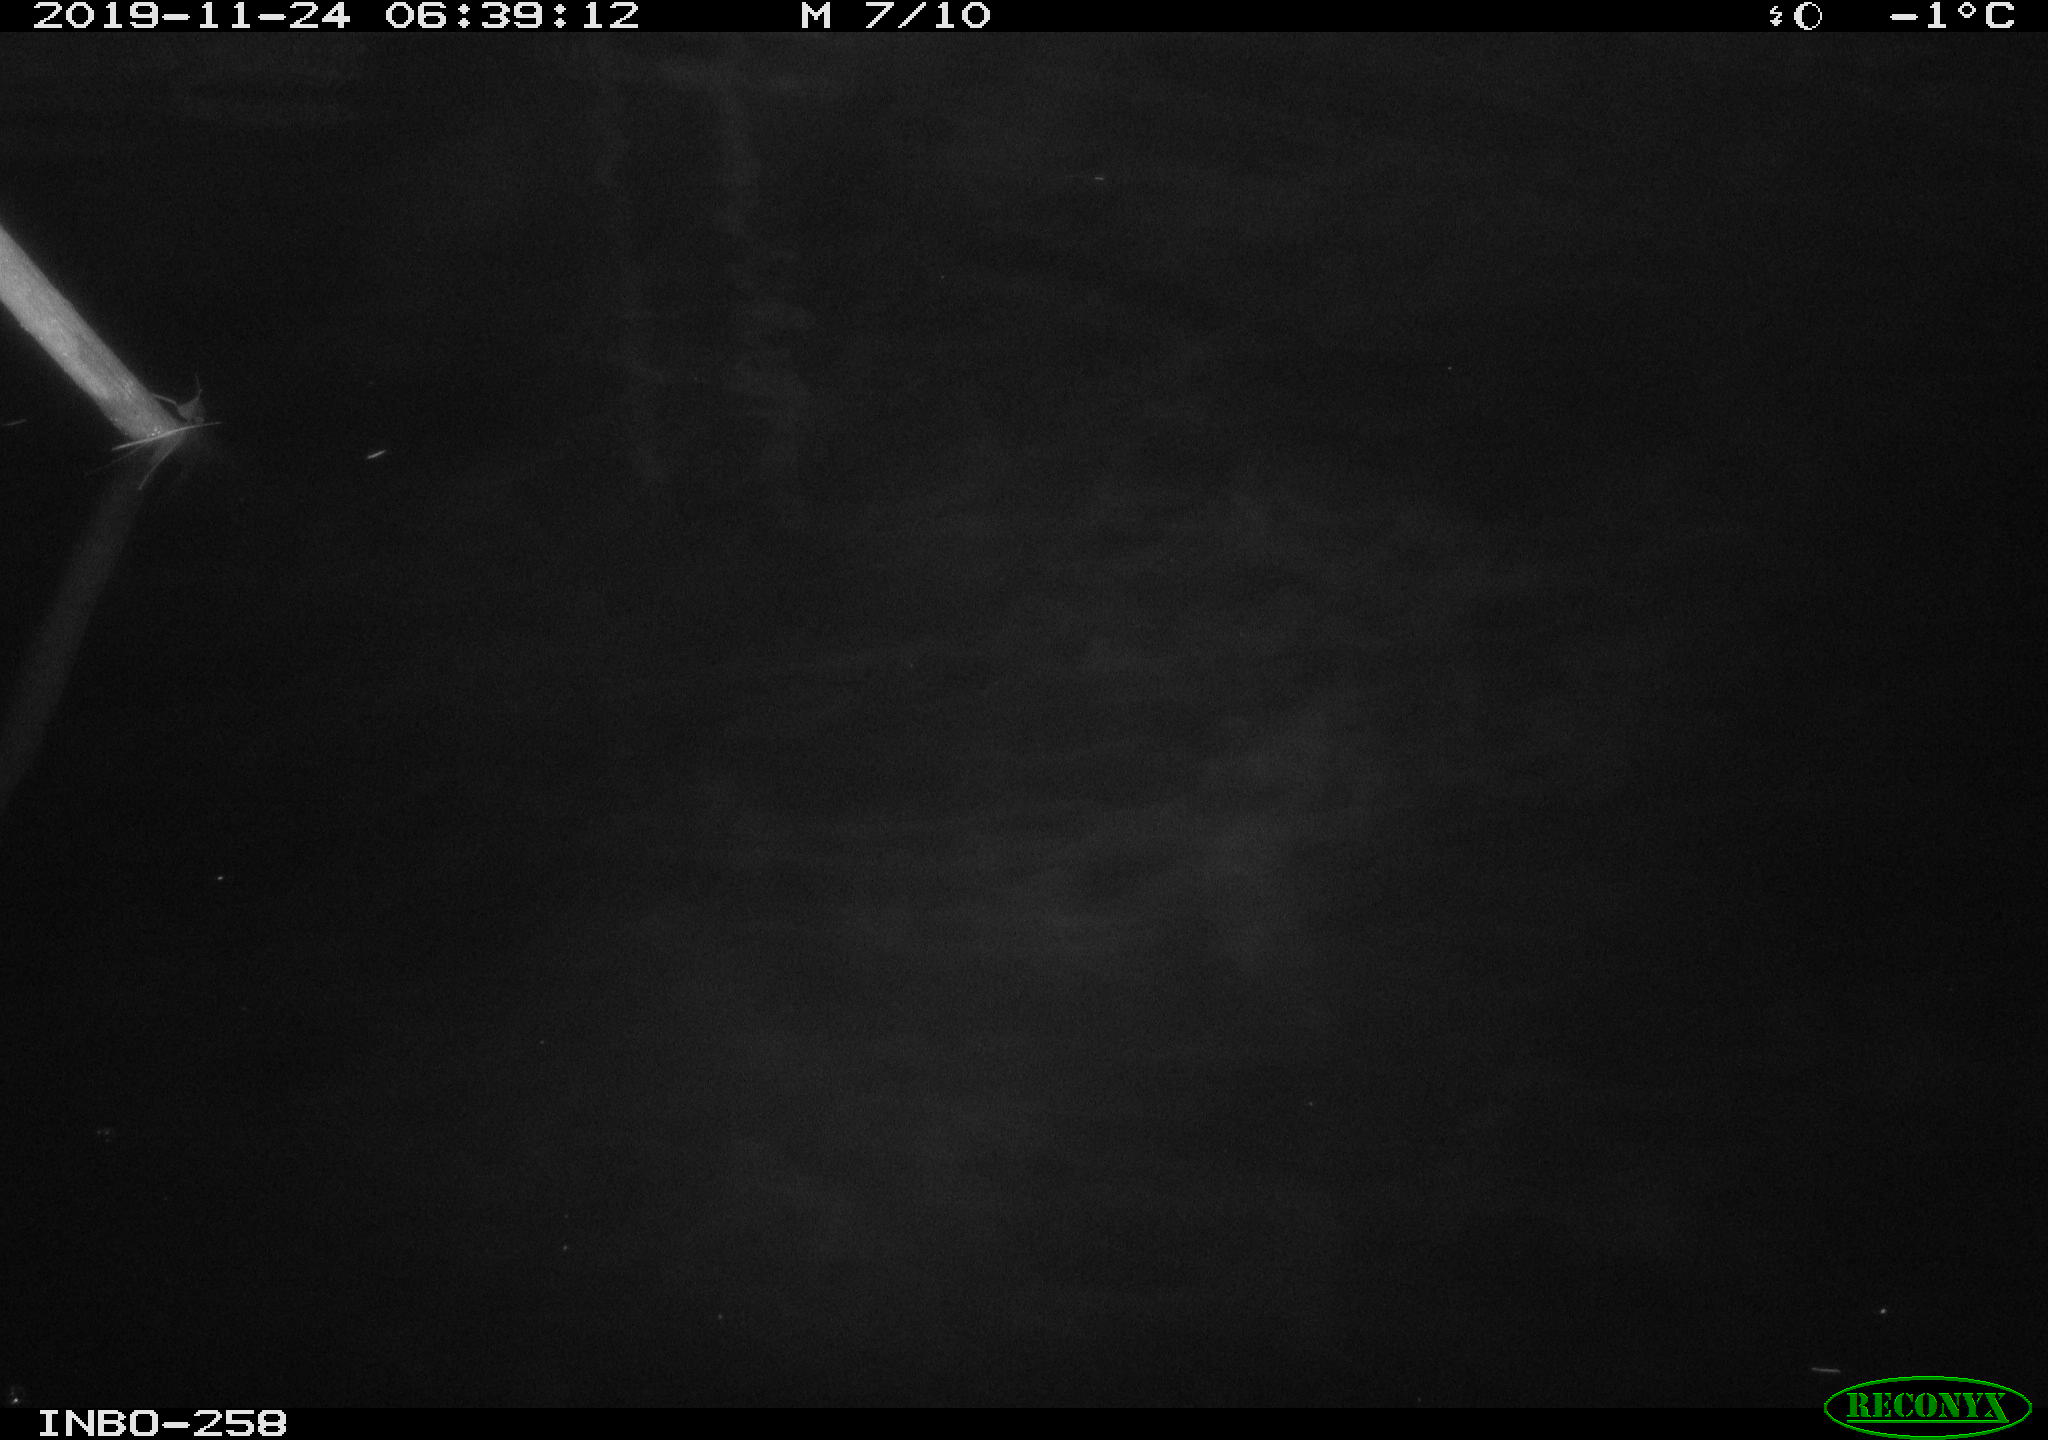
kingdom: Animalia
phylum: Chordata
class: Aves
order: Anseriformes
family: Anatidae
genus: Anas
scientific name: Anas platyrhynchos
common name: Mallard
